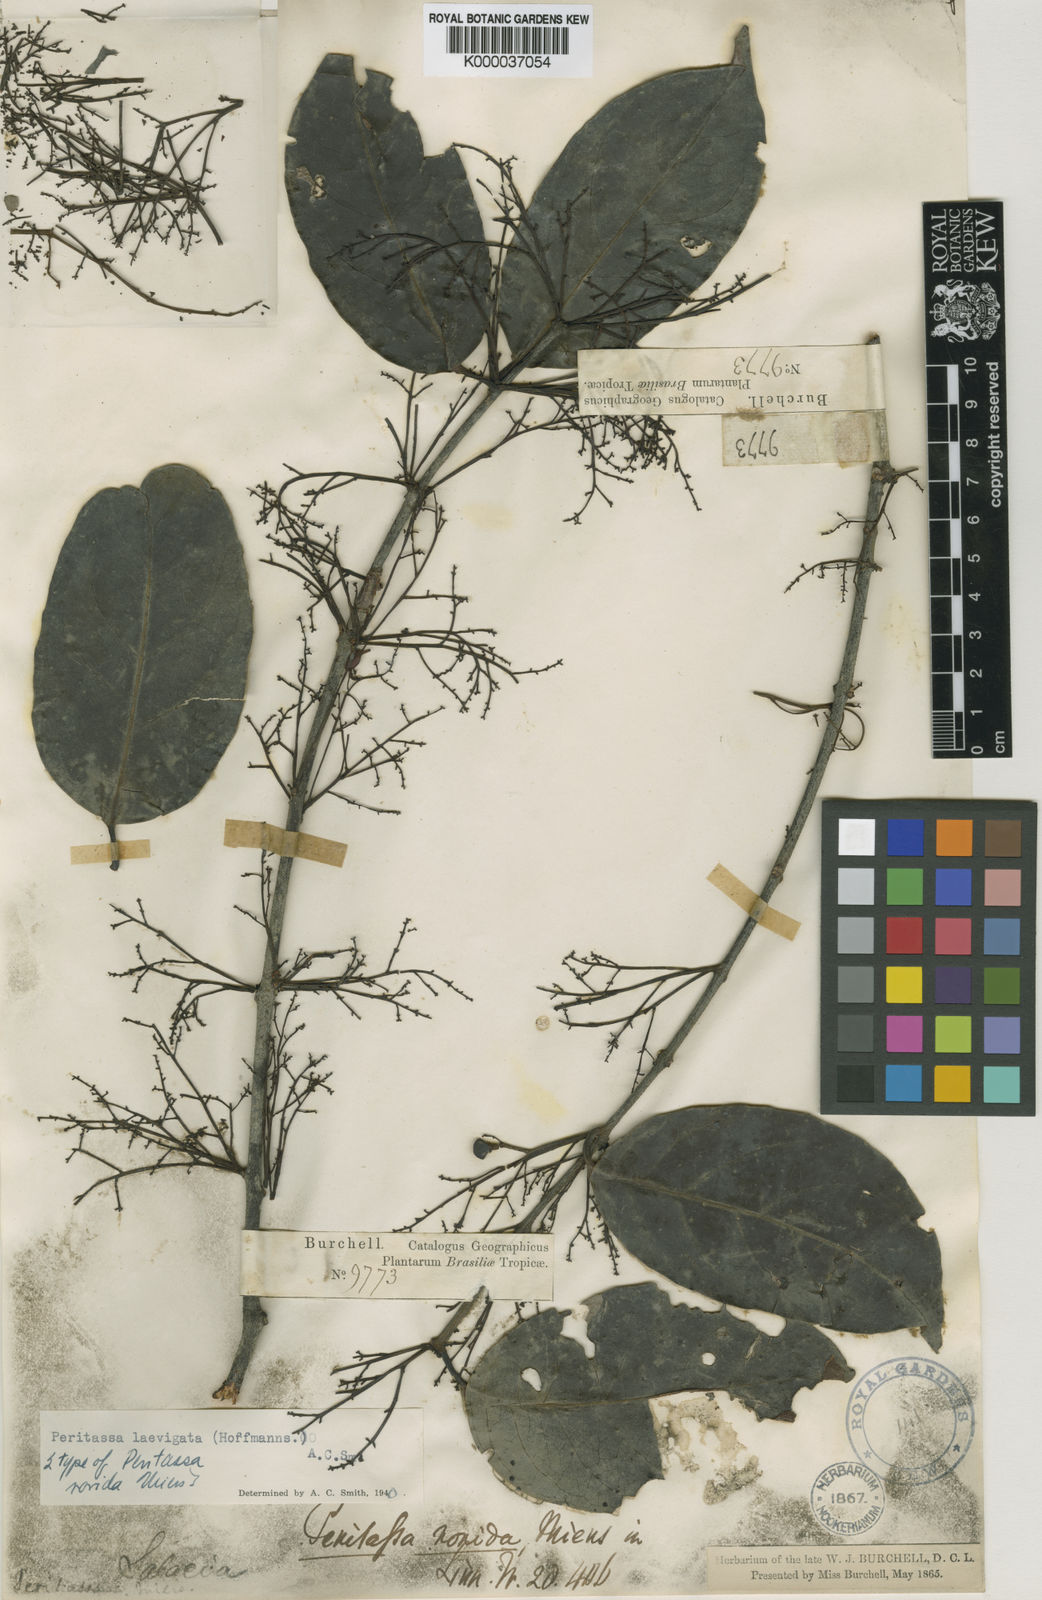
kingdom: Plantae
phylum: Tracheophyta
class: Magnoliopsida
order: Celastrales
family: Celastraceae
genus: Peritassa
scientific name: Peritassa laevigata
